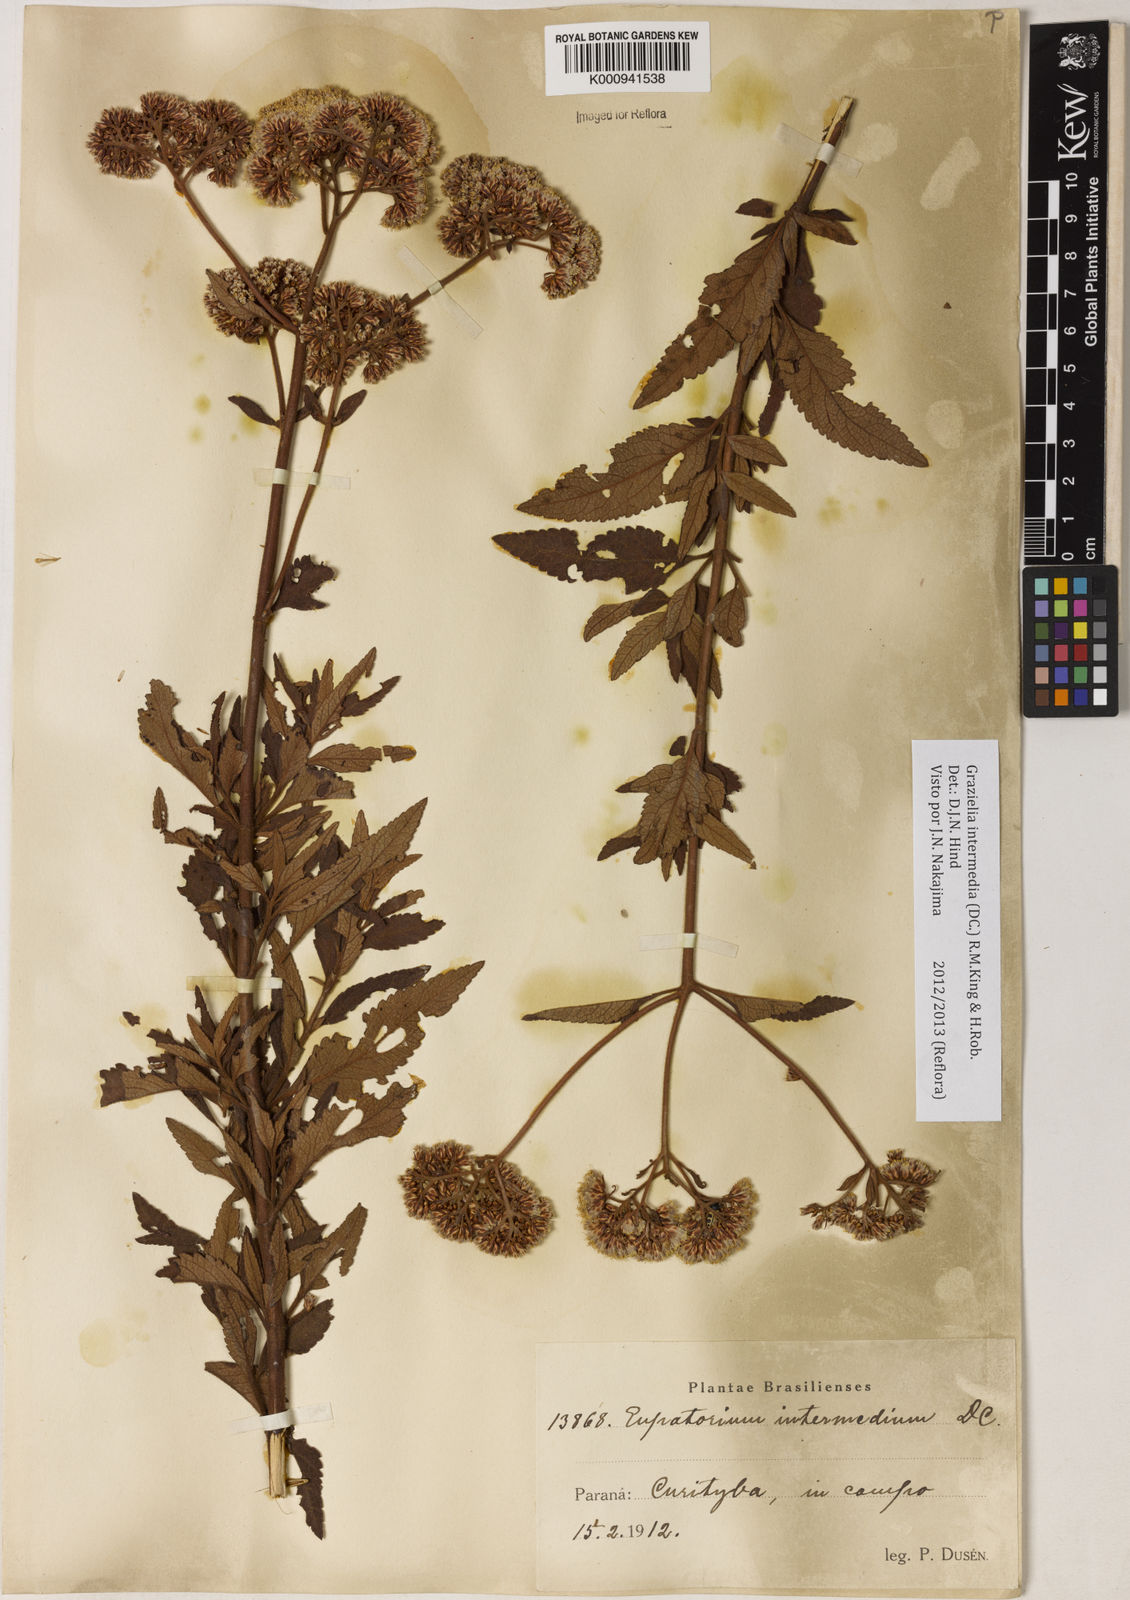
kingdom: Plantae
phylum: Tracheophyta
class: Magnoliopsida
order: Asterales
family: Asteraceae
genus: Grazielia
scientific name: Grazielia intermedia
